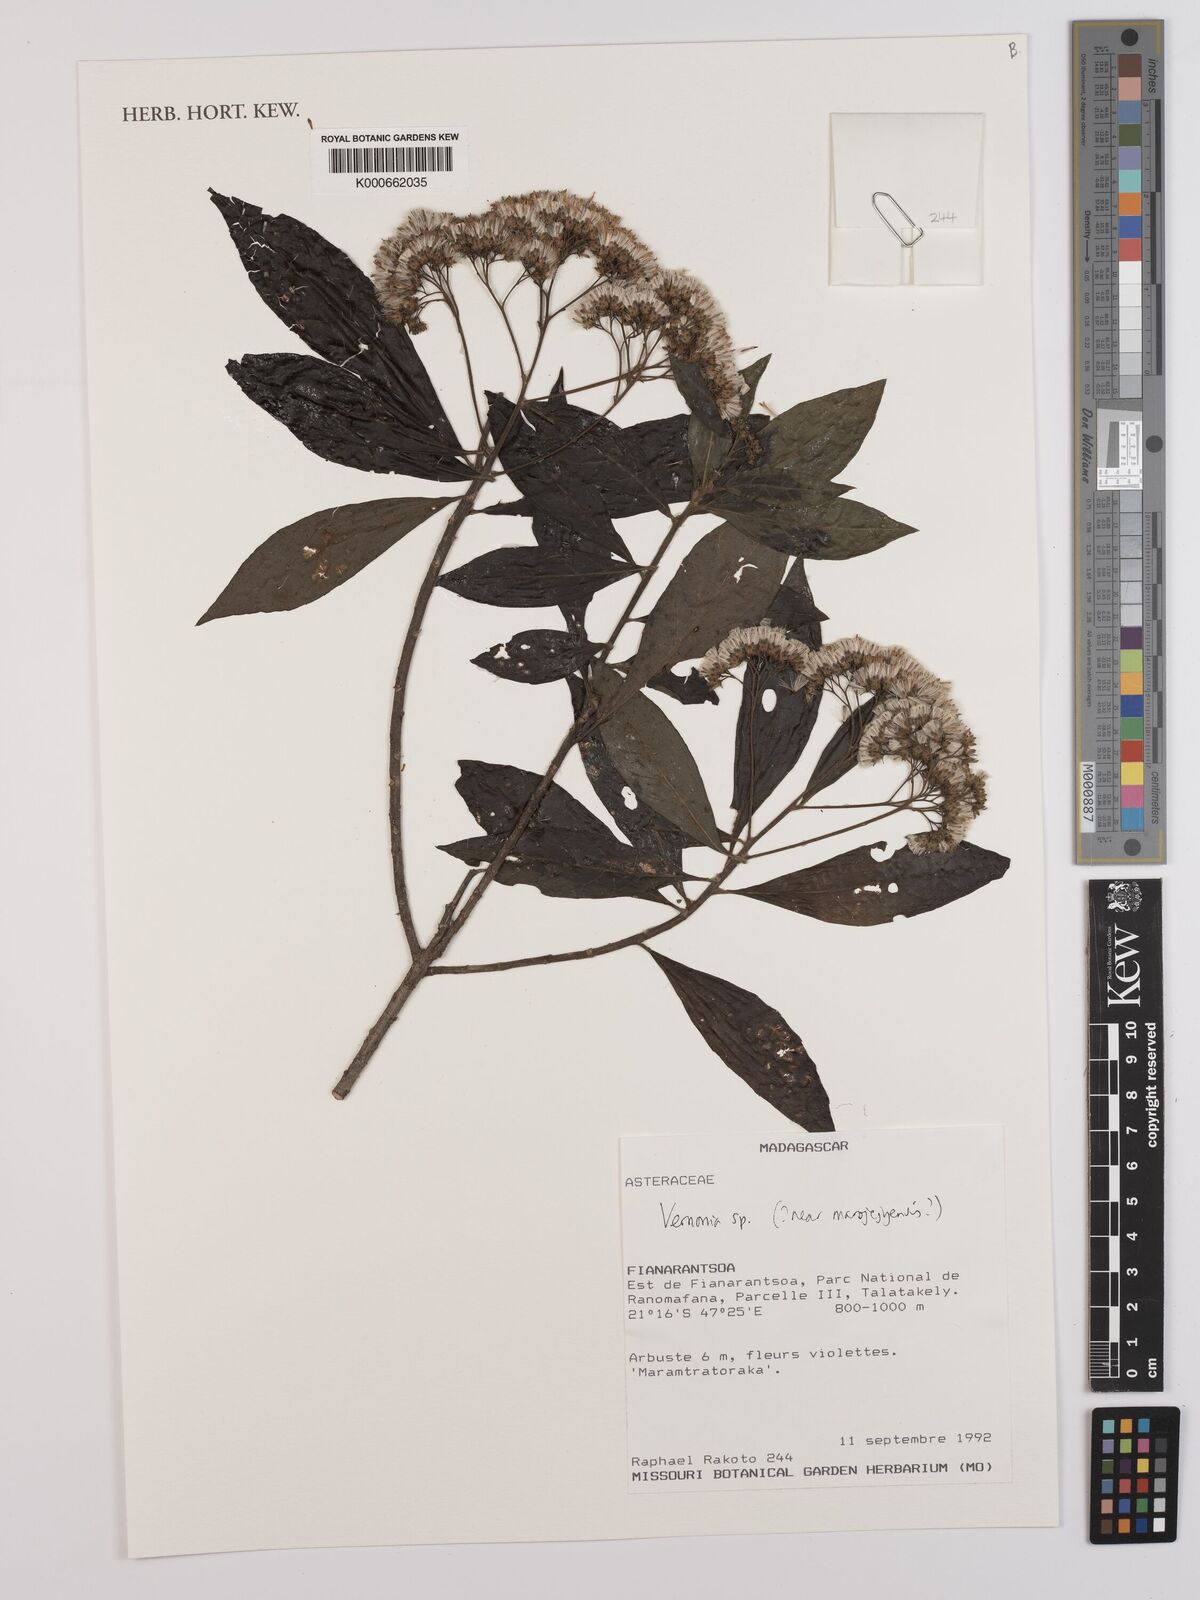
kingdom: Plantae
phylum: Tracheophyta
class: Magnoliopsida
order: Asterales
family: Asteraceae
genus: Vernonia
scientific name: Vernonia
